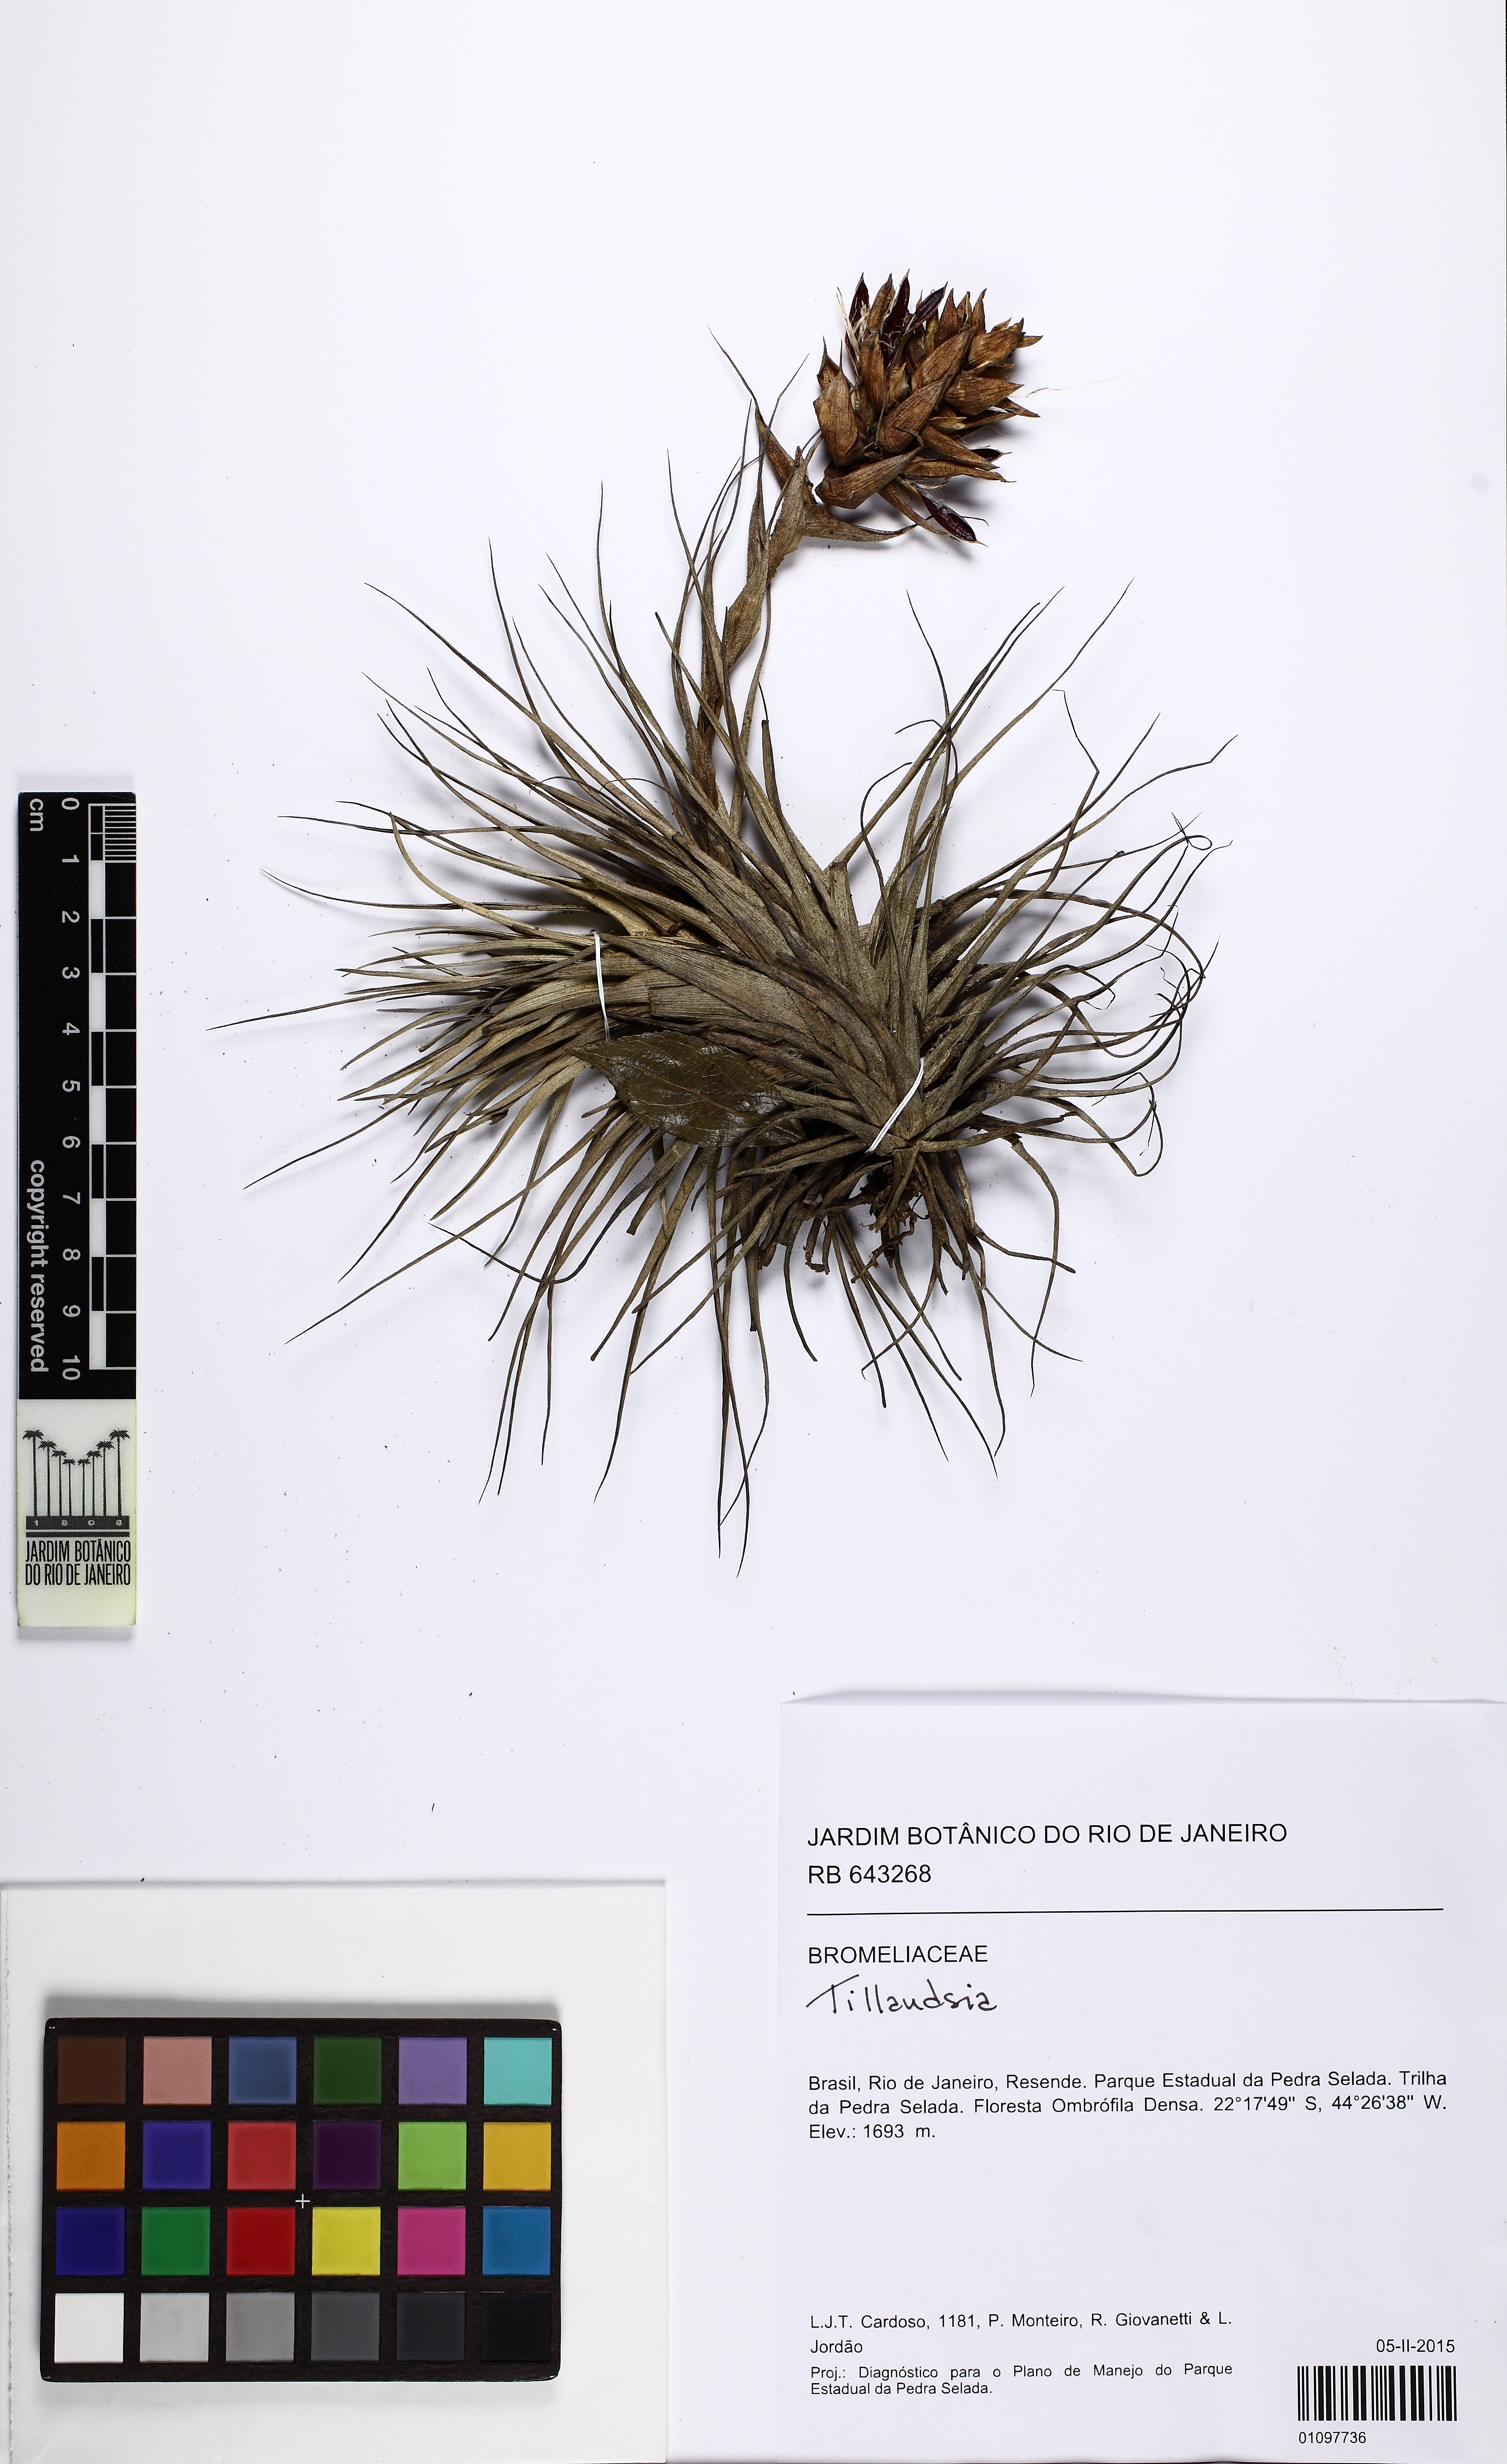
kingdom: Plantae
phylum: Tracheophyta
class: Liliopsida
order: Poales
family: Bromeliaceae
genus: Tillandsia
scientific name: Tillandsia stricta
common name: Airplant
